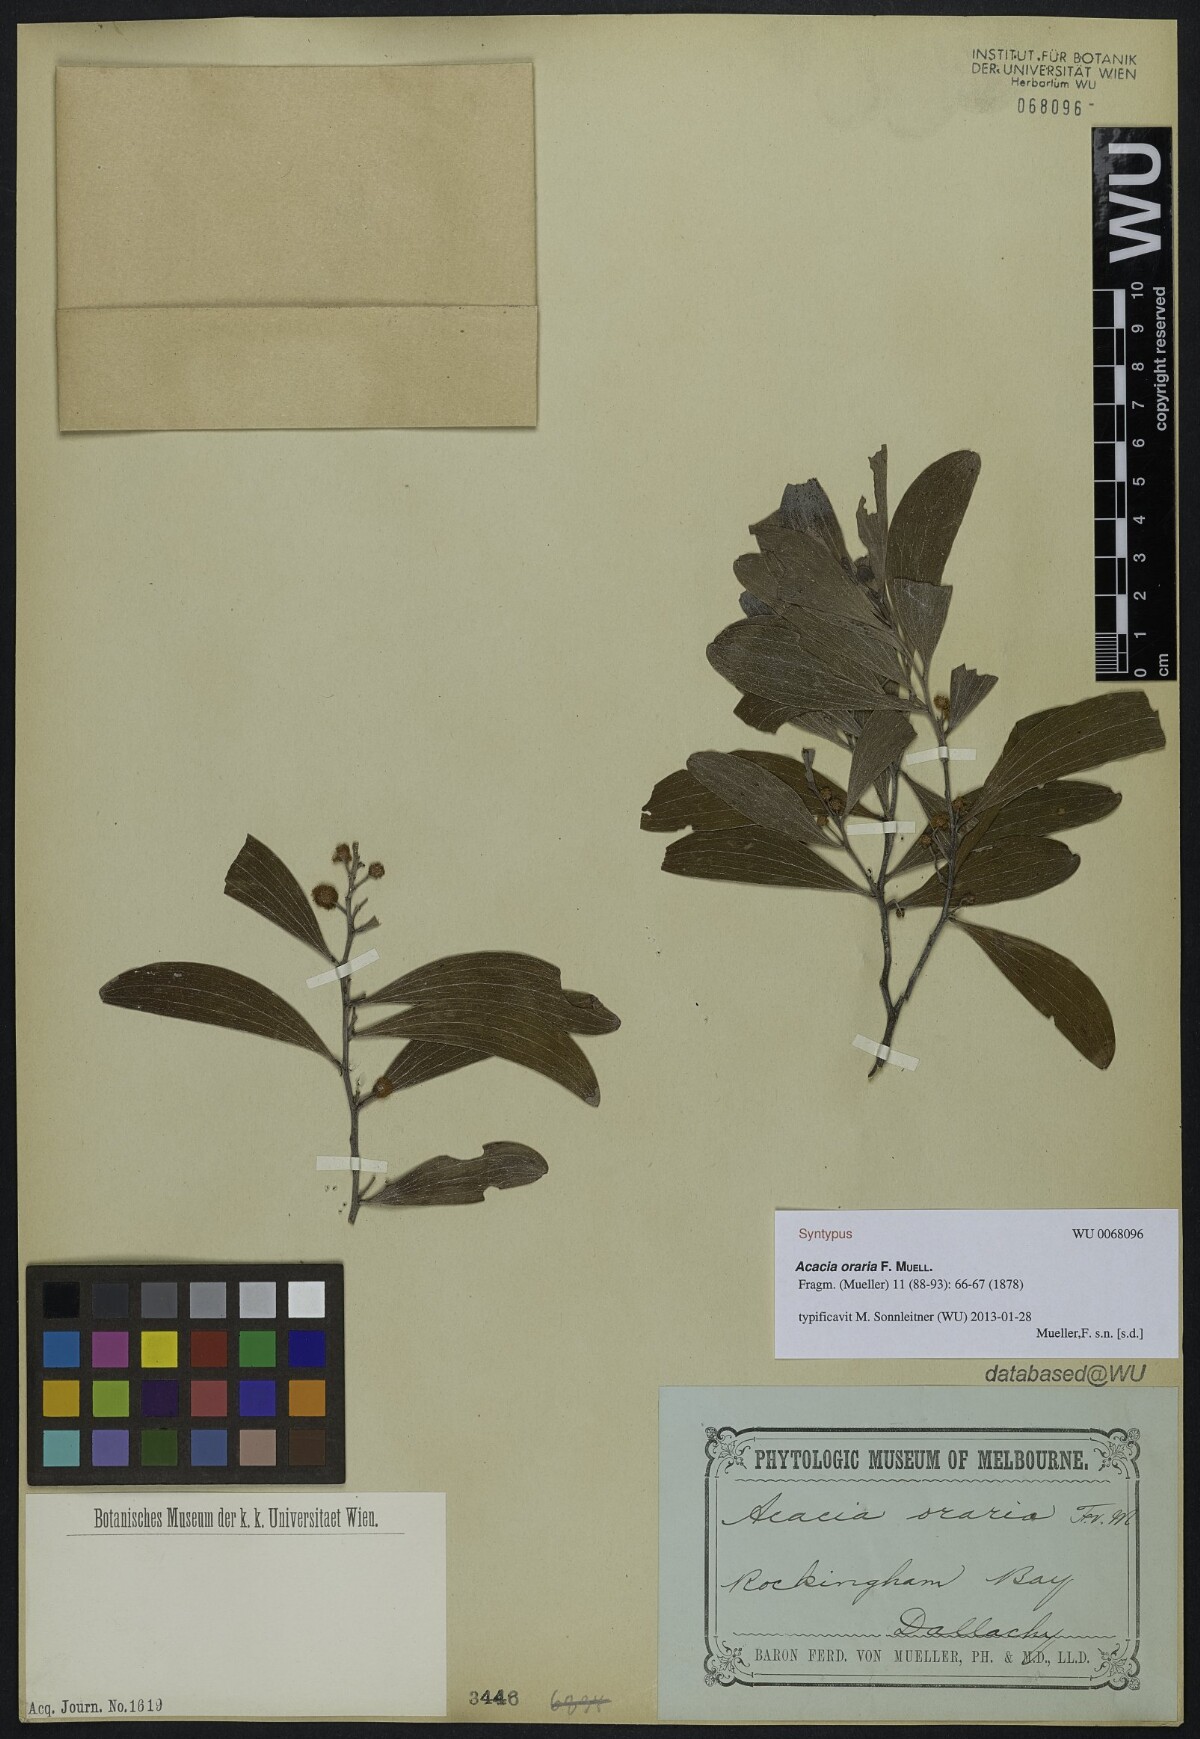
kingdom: Plantae
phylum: Tracheophyta
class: Magnoliopsida
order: Fabales
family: Fabaceae
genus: Acacia
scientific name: Acacia oraria
